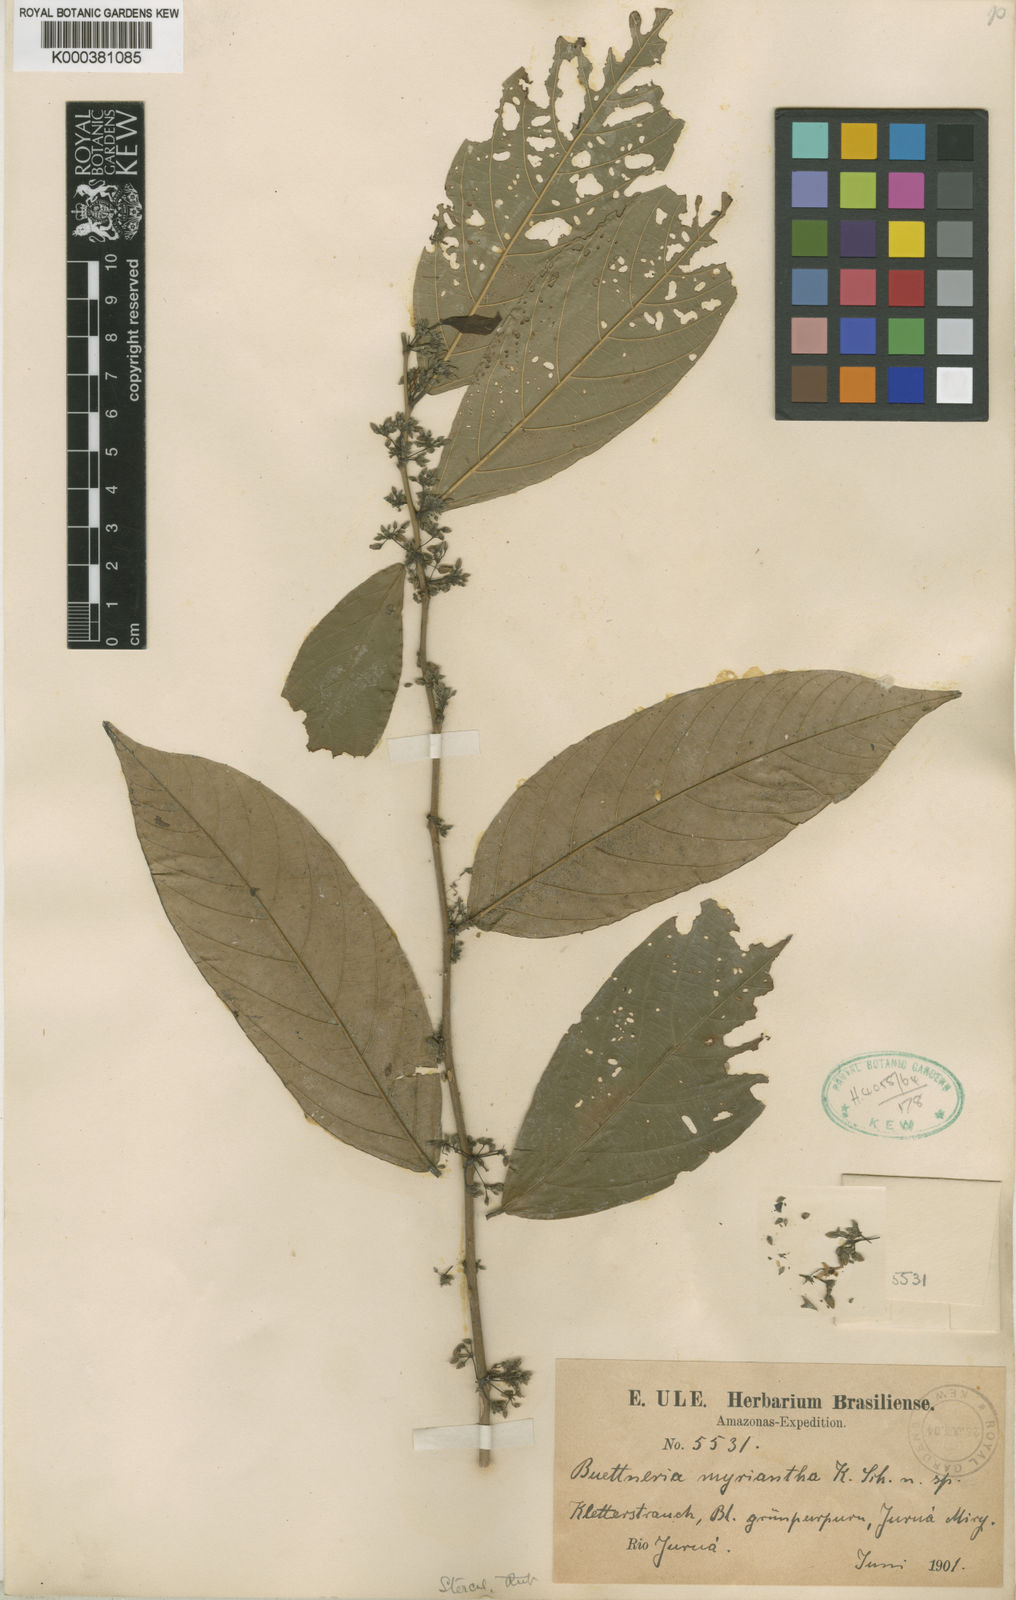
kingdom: Plantae
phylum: Tracheophyta
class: Magnoliopsida
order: Malvales
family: Malvaceae
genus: Byttneria
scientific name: Byttneria coriacea
